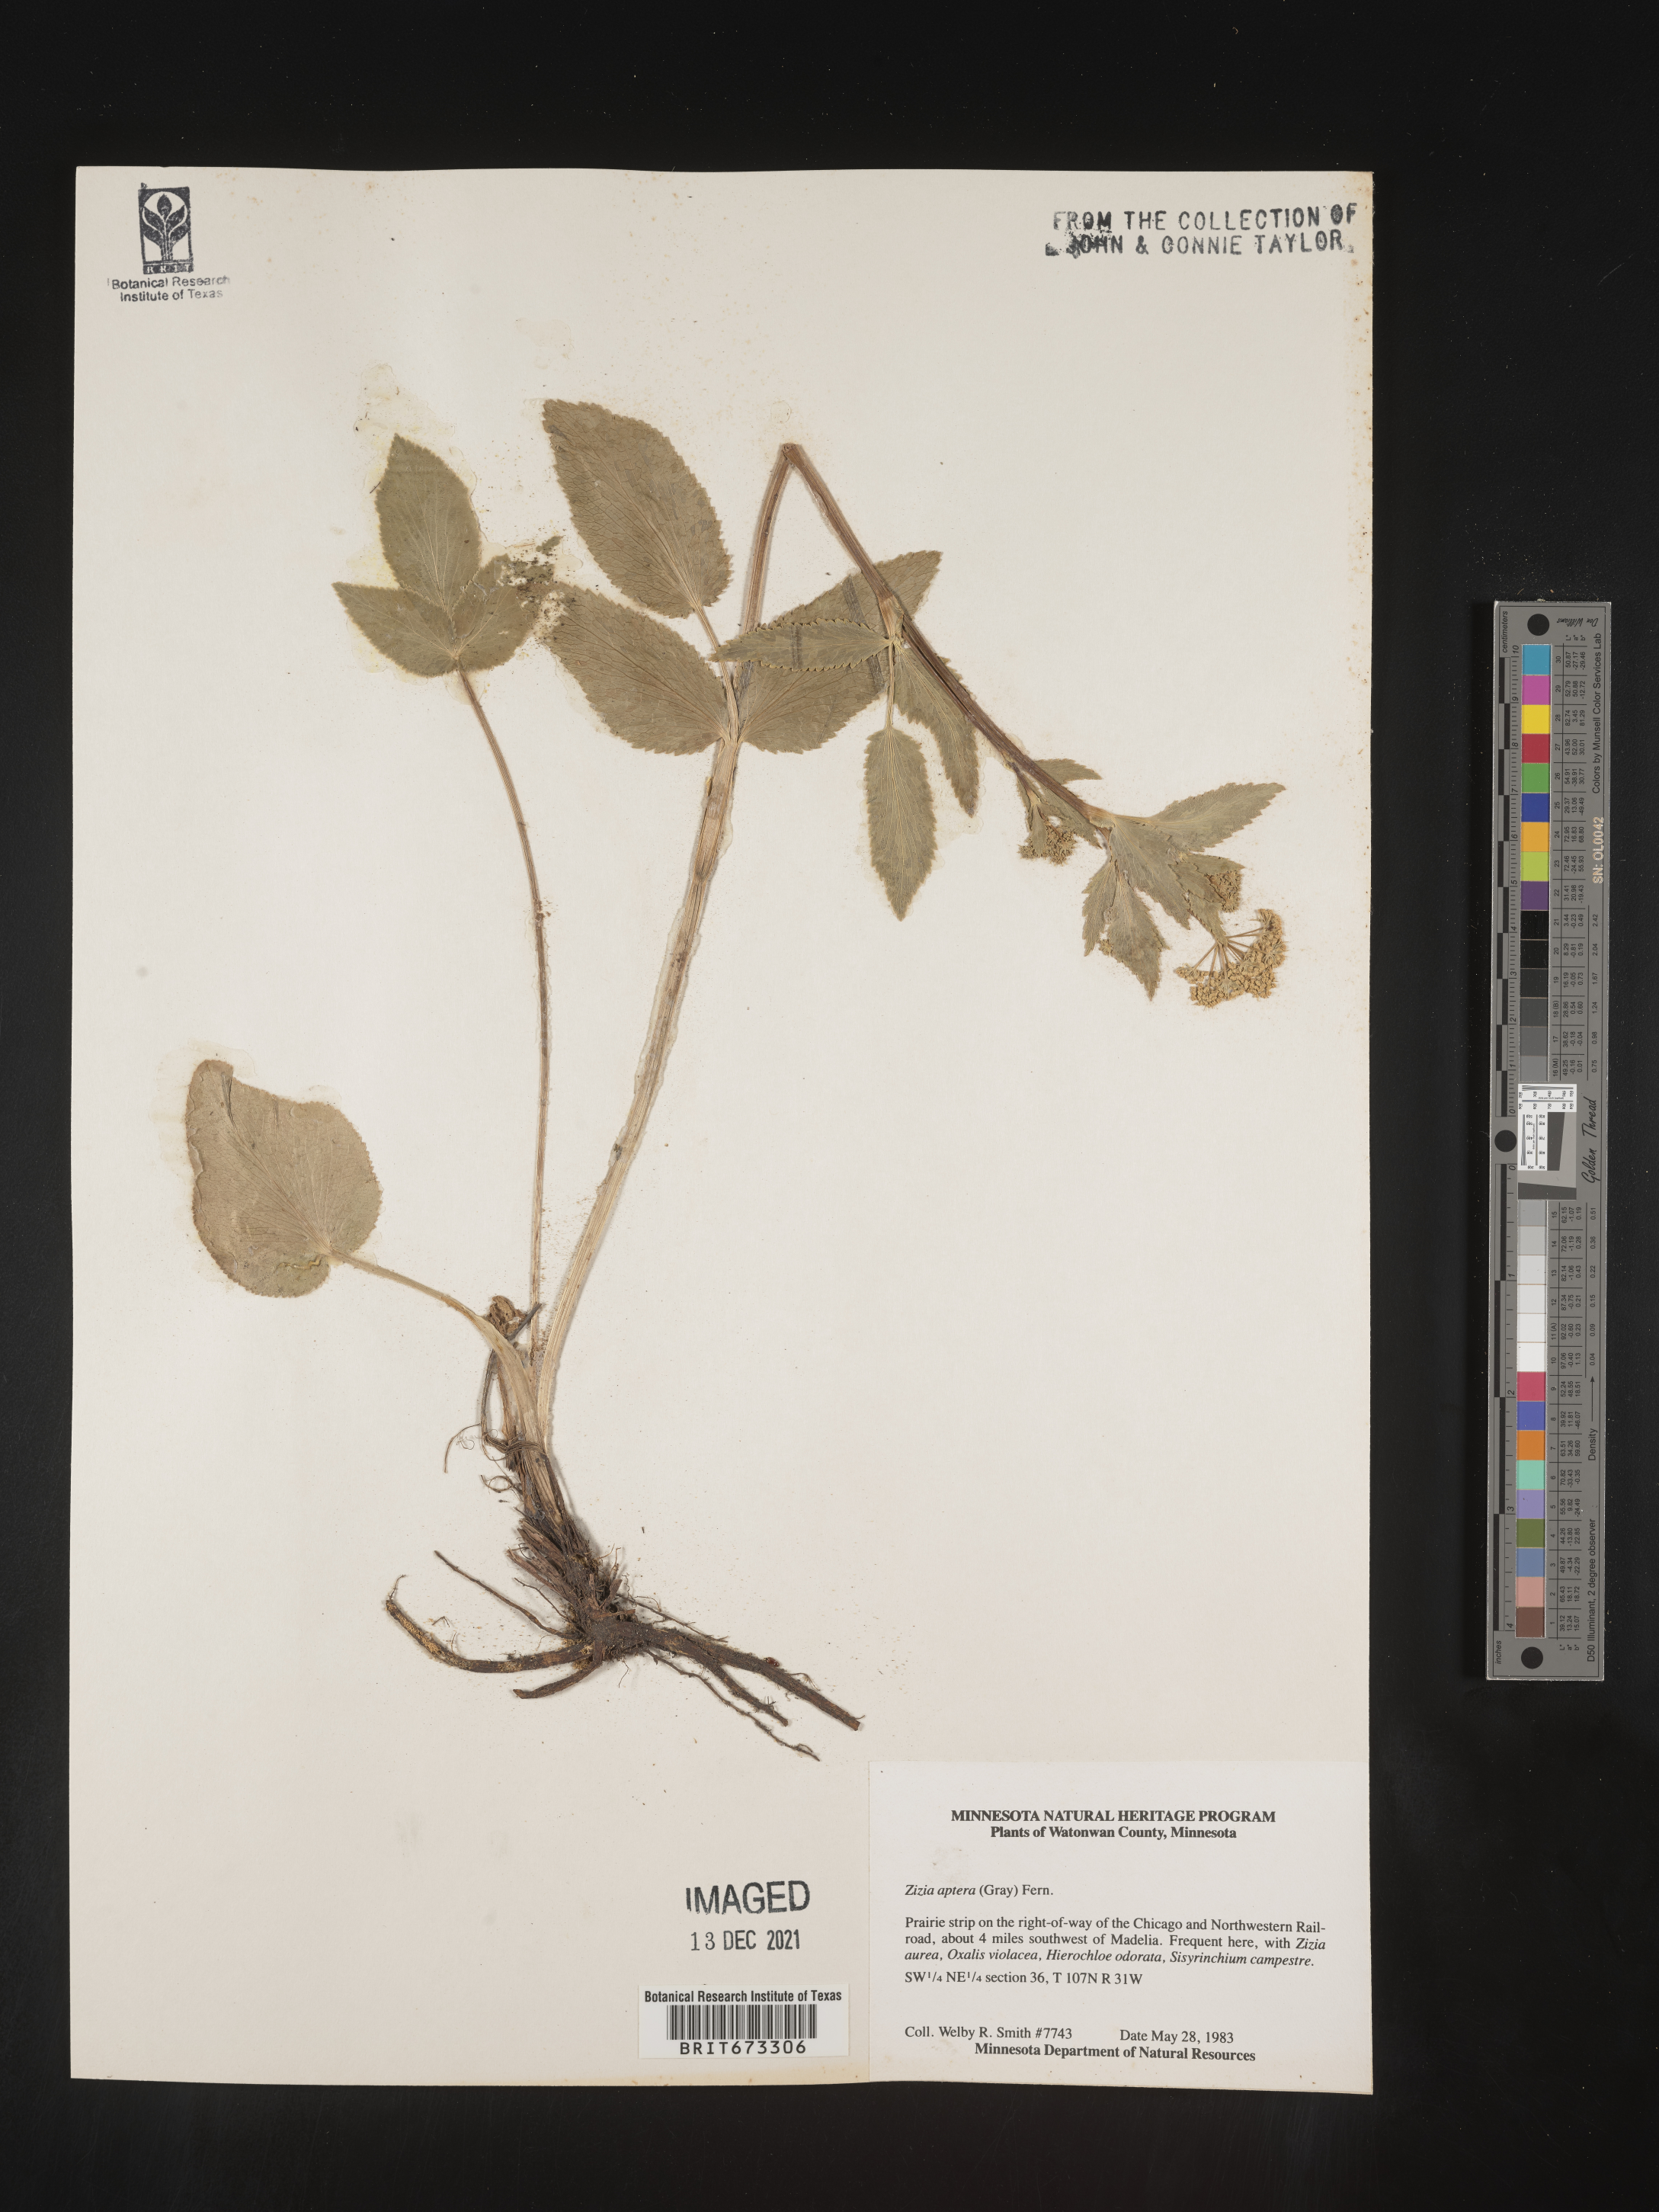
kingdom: Plantae
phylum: Tracheophyta
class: Magnoliopsida
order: Apiales
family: Apiaceae
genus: Zizia
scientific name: Zizia aptera
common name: Heart-leaved alexanders
